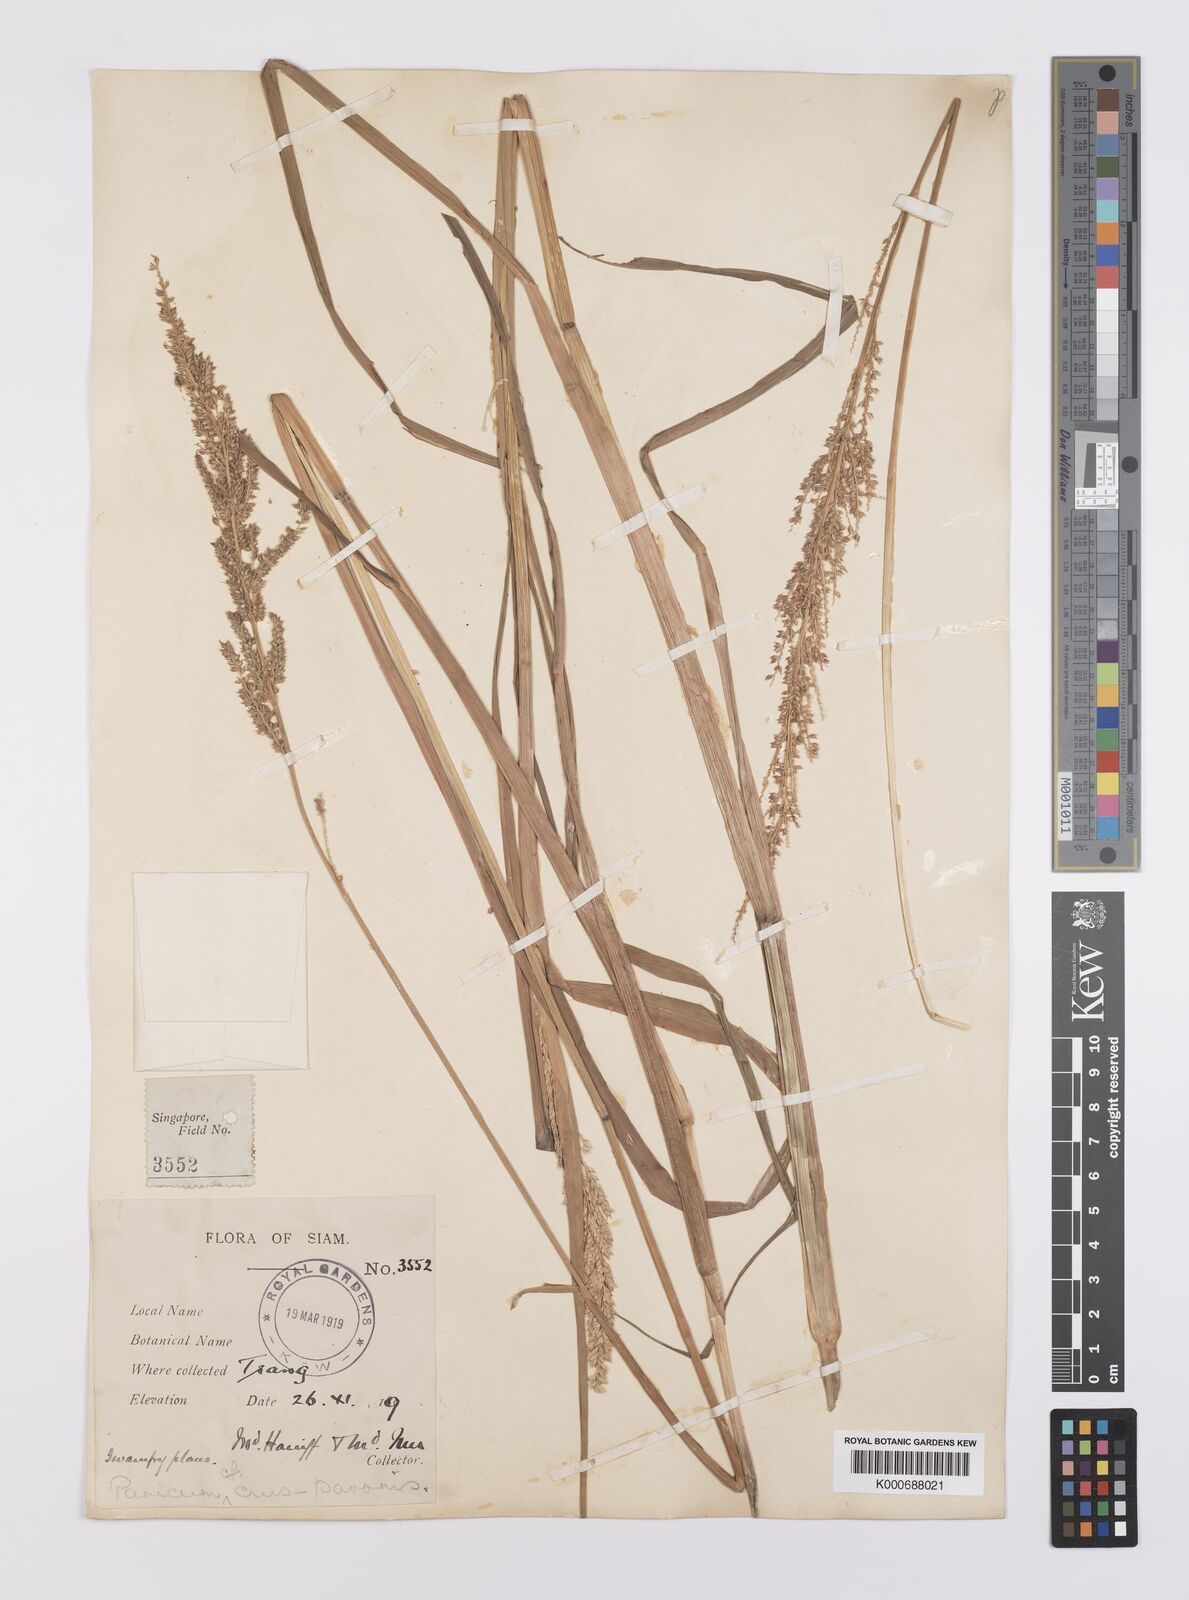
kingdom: Plantae
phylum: Tracheophyta
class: Liliopsida
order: Poales
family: Poaceae
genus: Echinochloa
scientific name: Echinochloa crus-galli
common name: Cockspur
